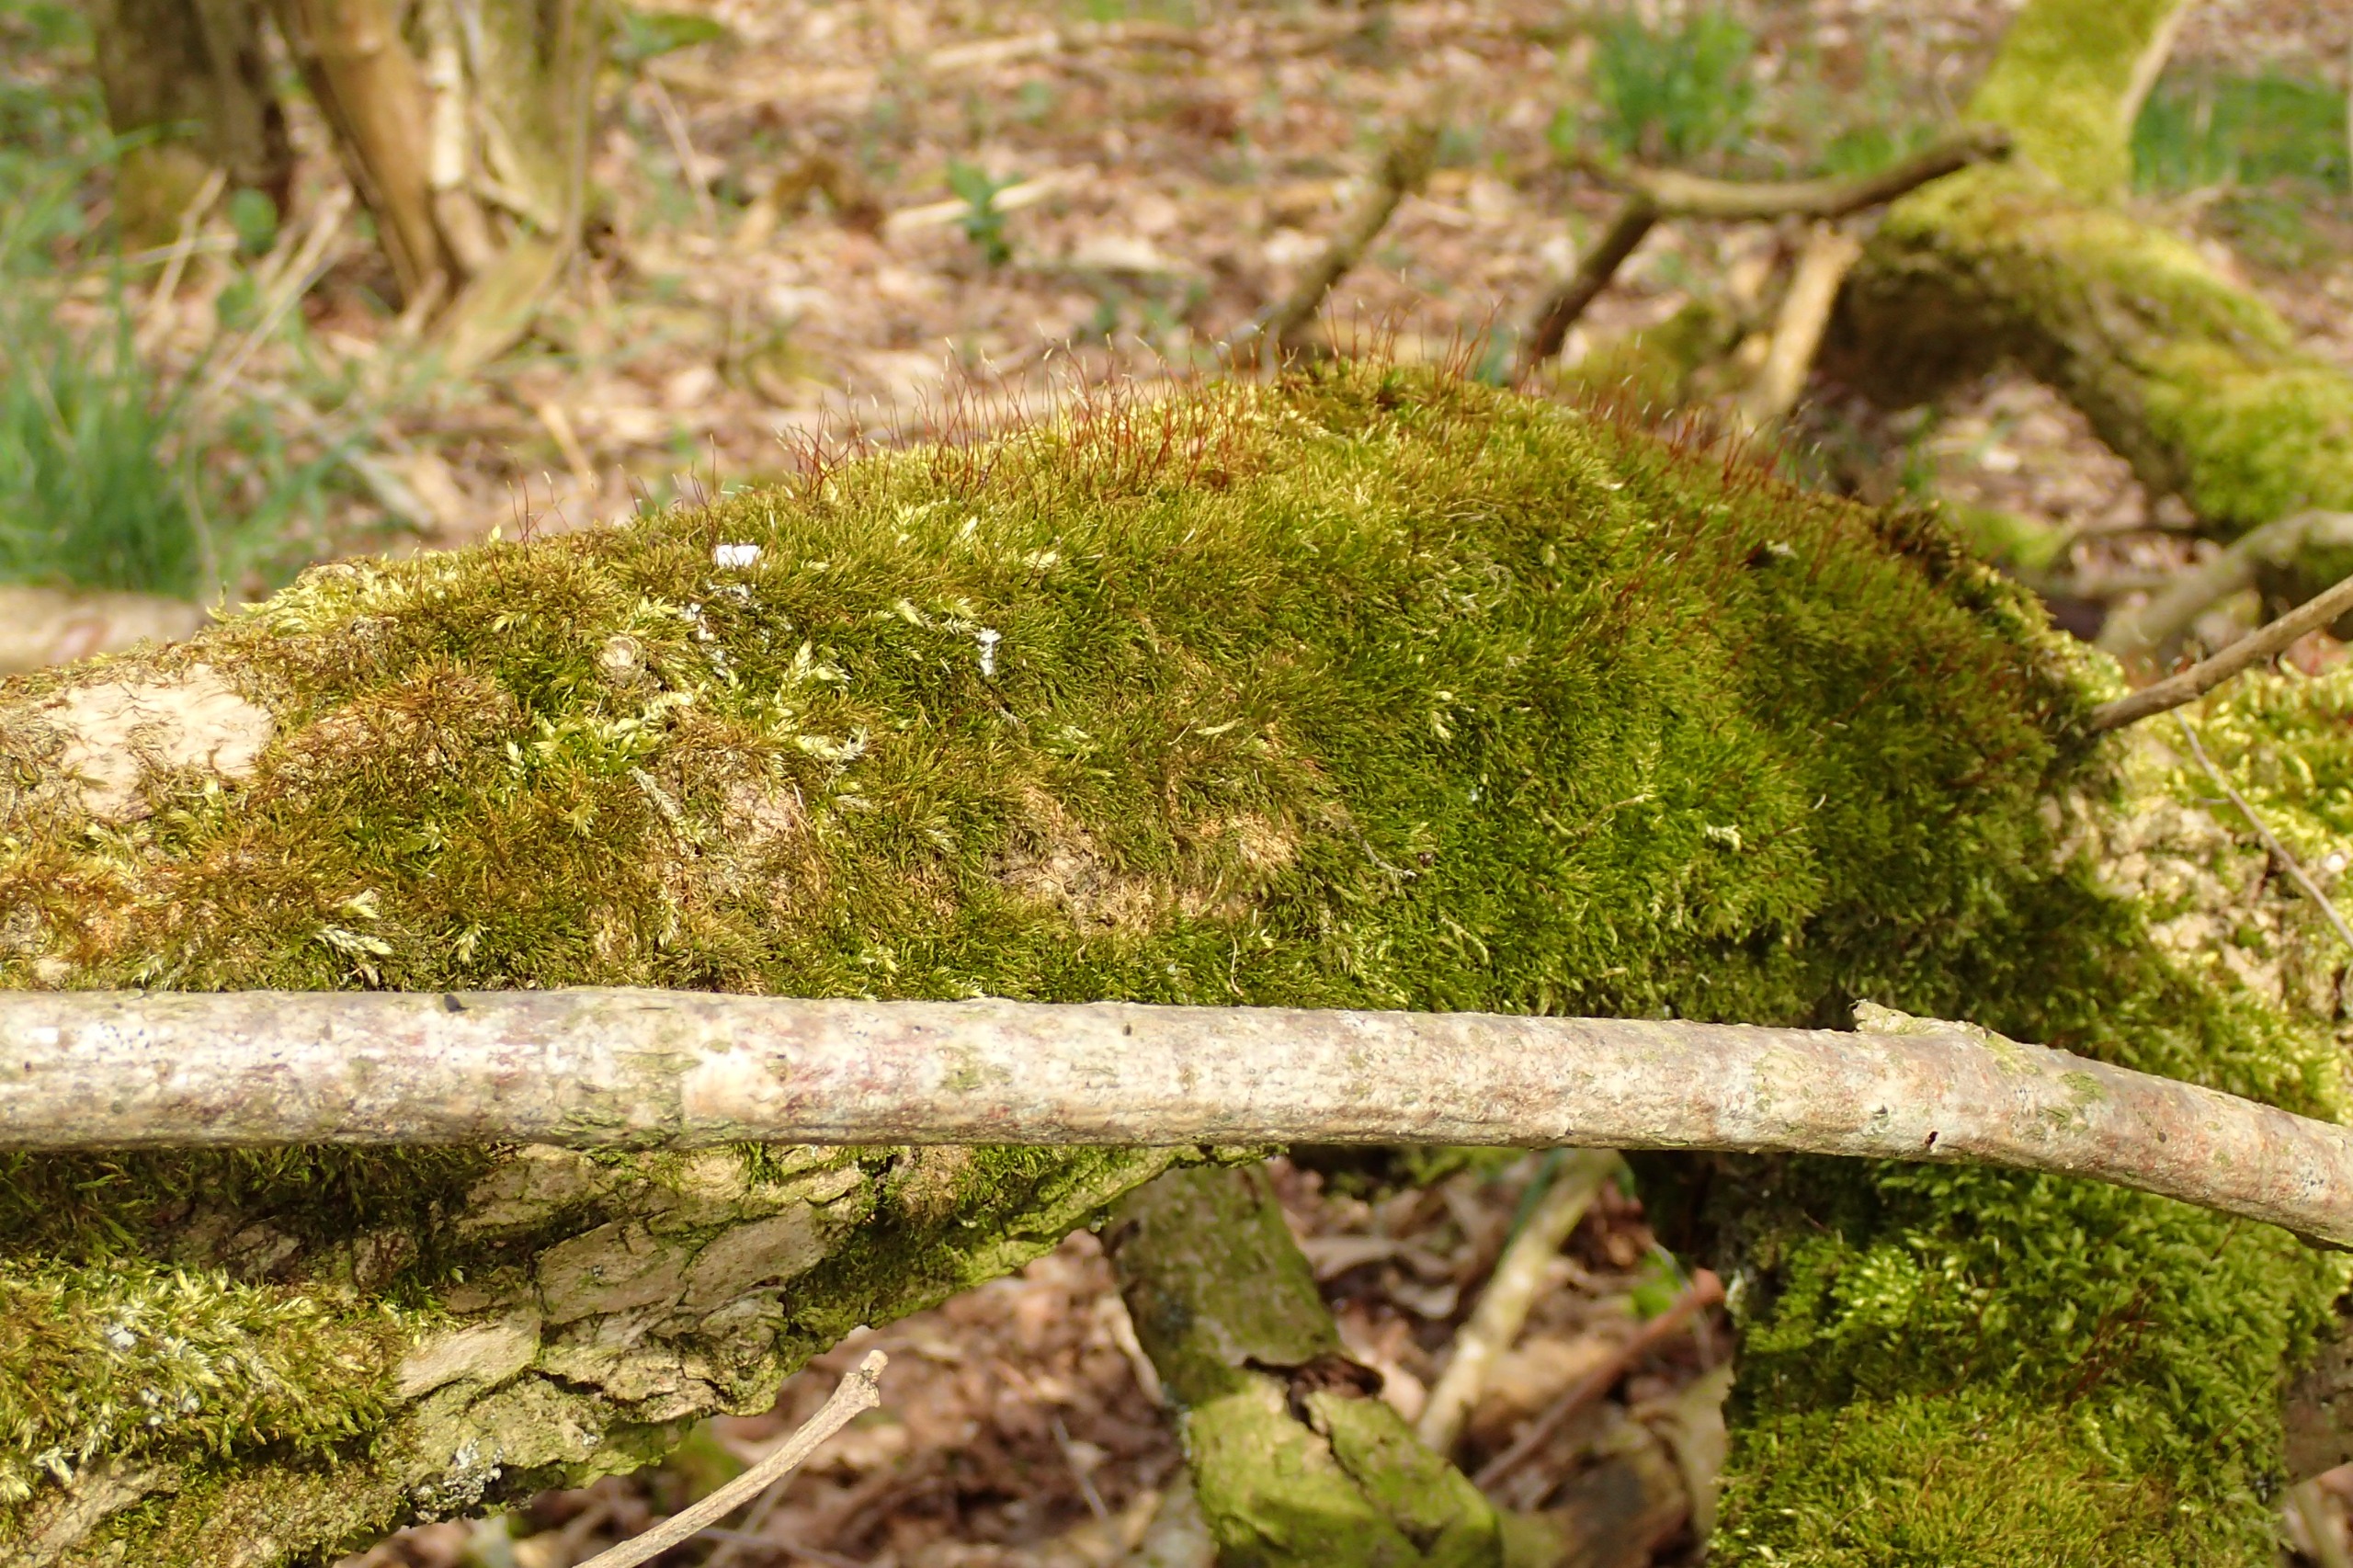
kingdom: Plantae
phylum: Bryophyta
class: Bryopsida
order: Hypnales
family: Amblystegiaceae
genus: Amblystegium
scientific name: Amblystegium serpens
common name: Almindelig krybmos
